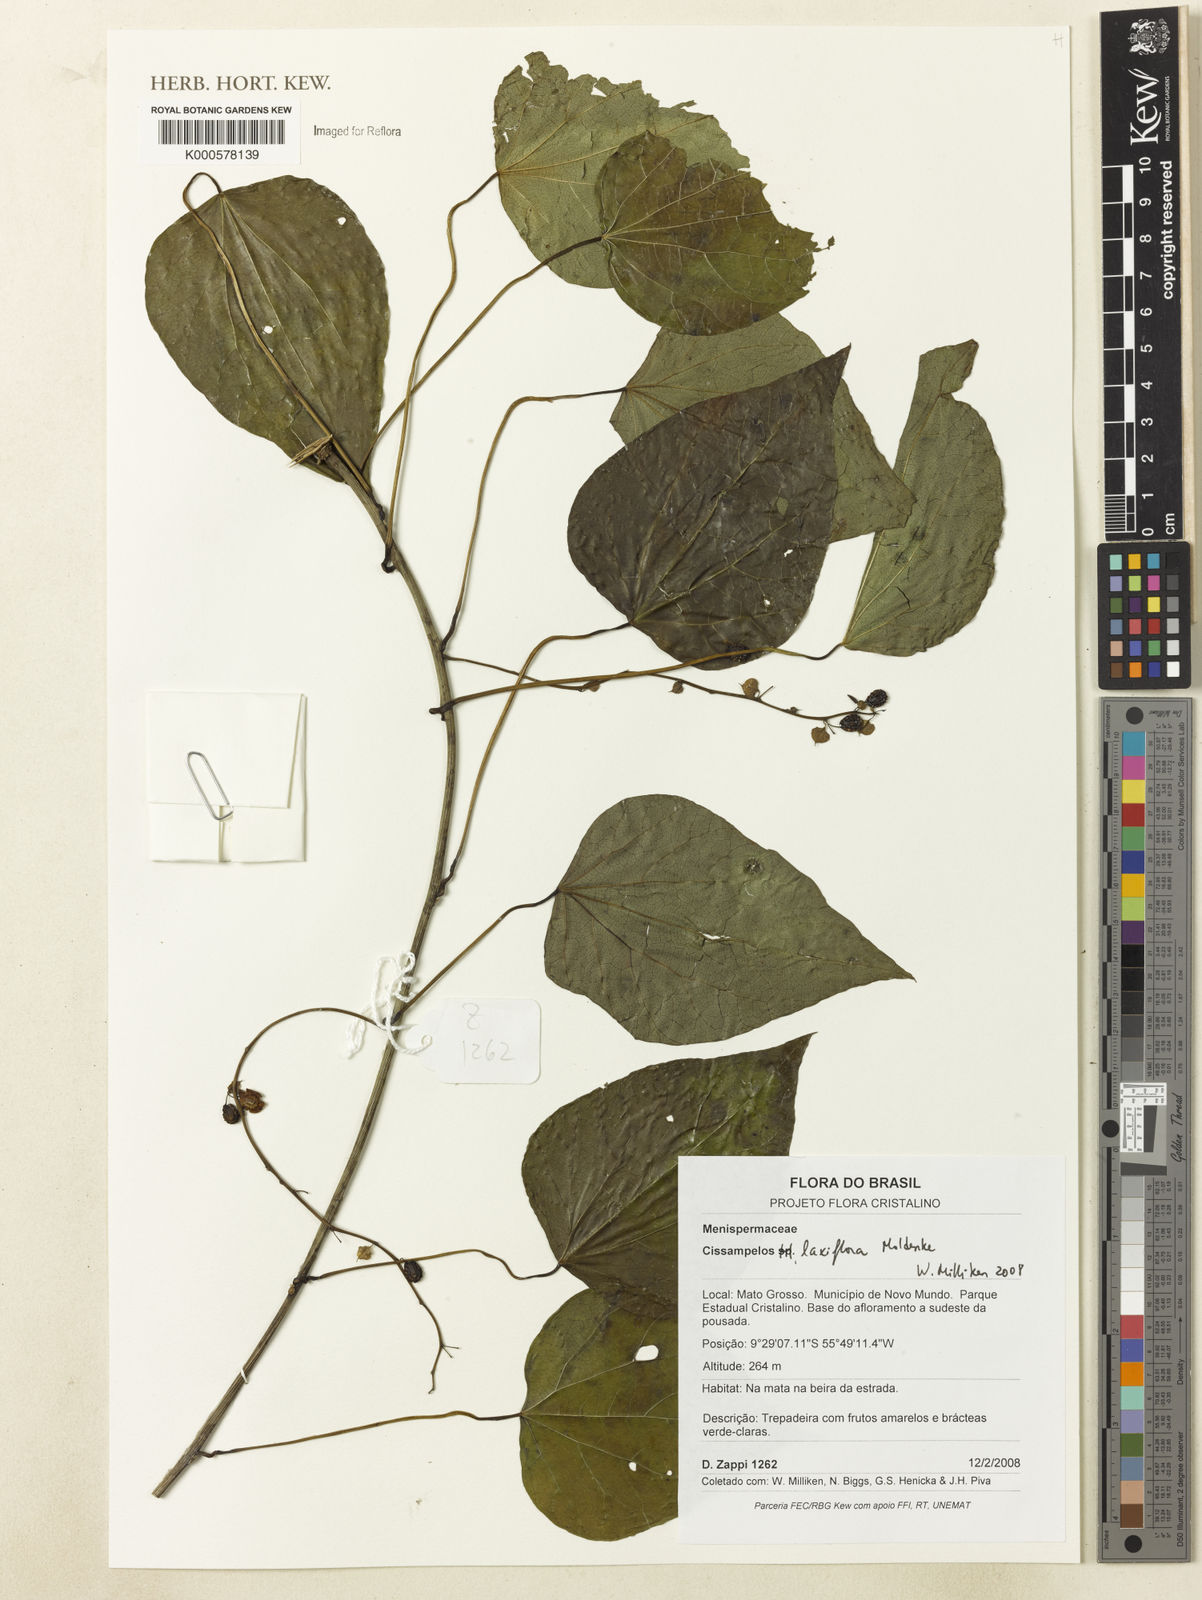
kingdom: Plantae
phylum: Tracheophyta
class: Magnoliopsida
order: Ranunculales
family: Menispermaceae
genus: Cissampelos
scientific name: Cissampelos laxiflora
